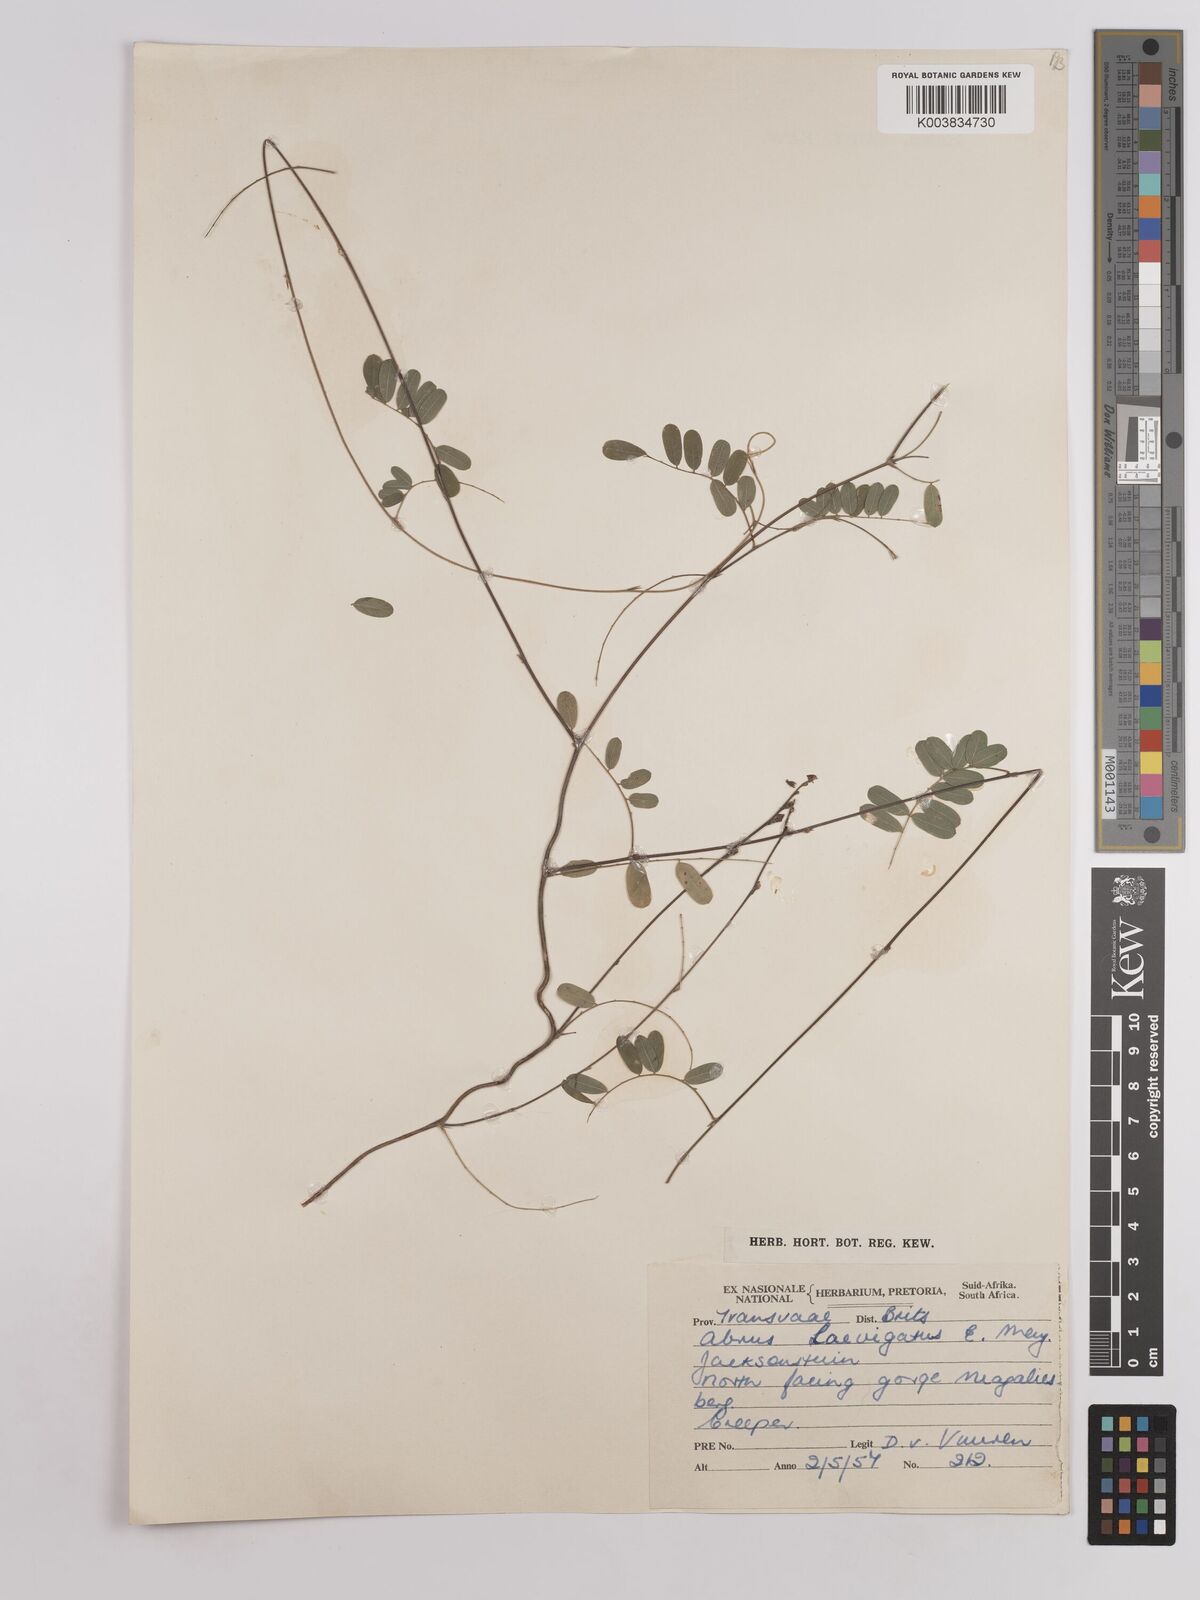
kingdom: Plantae
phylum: Tracheophyta
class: Magnoliopsida
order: Fabales
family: Fabaceae
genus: Abrus
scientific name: Abrus laevigatus
